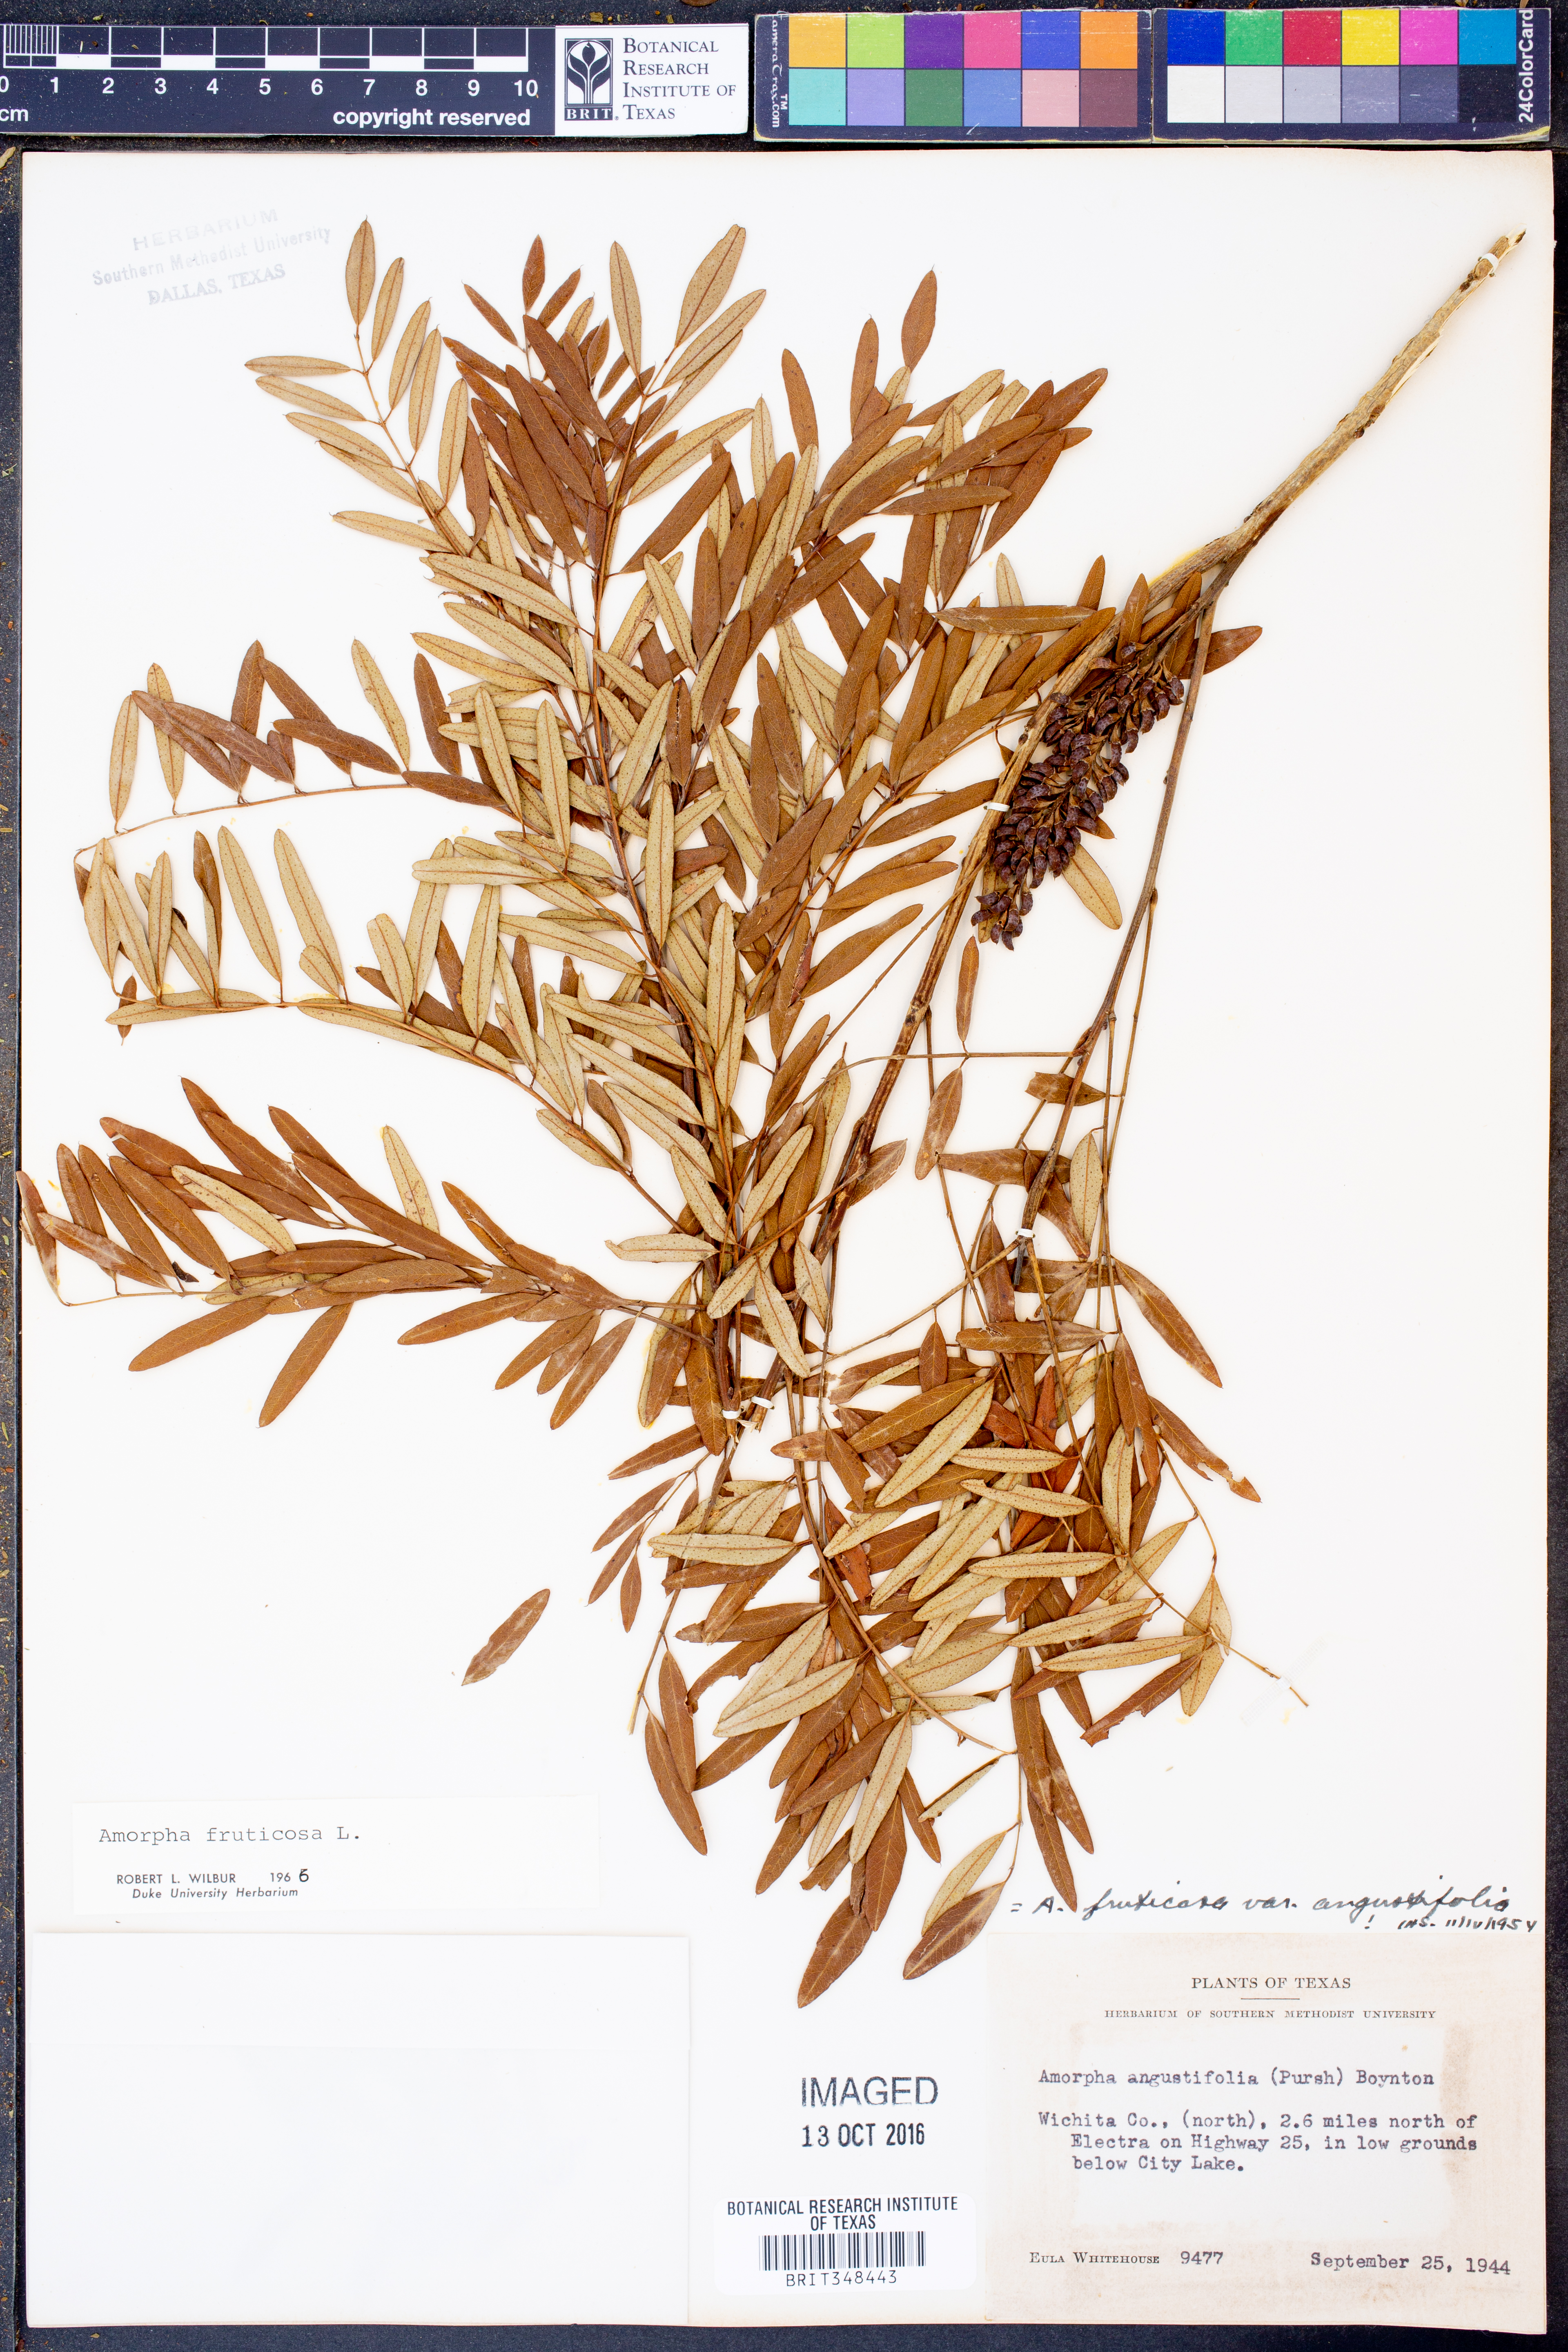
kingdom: Plantae
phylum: Tracheophyta
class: Magnoliopsida
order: Fabales
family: Fabaceae
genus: Amorpha
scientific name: Amorpha fruticosa
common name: False indigo
